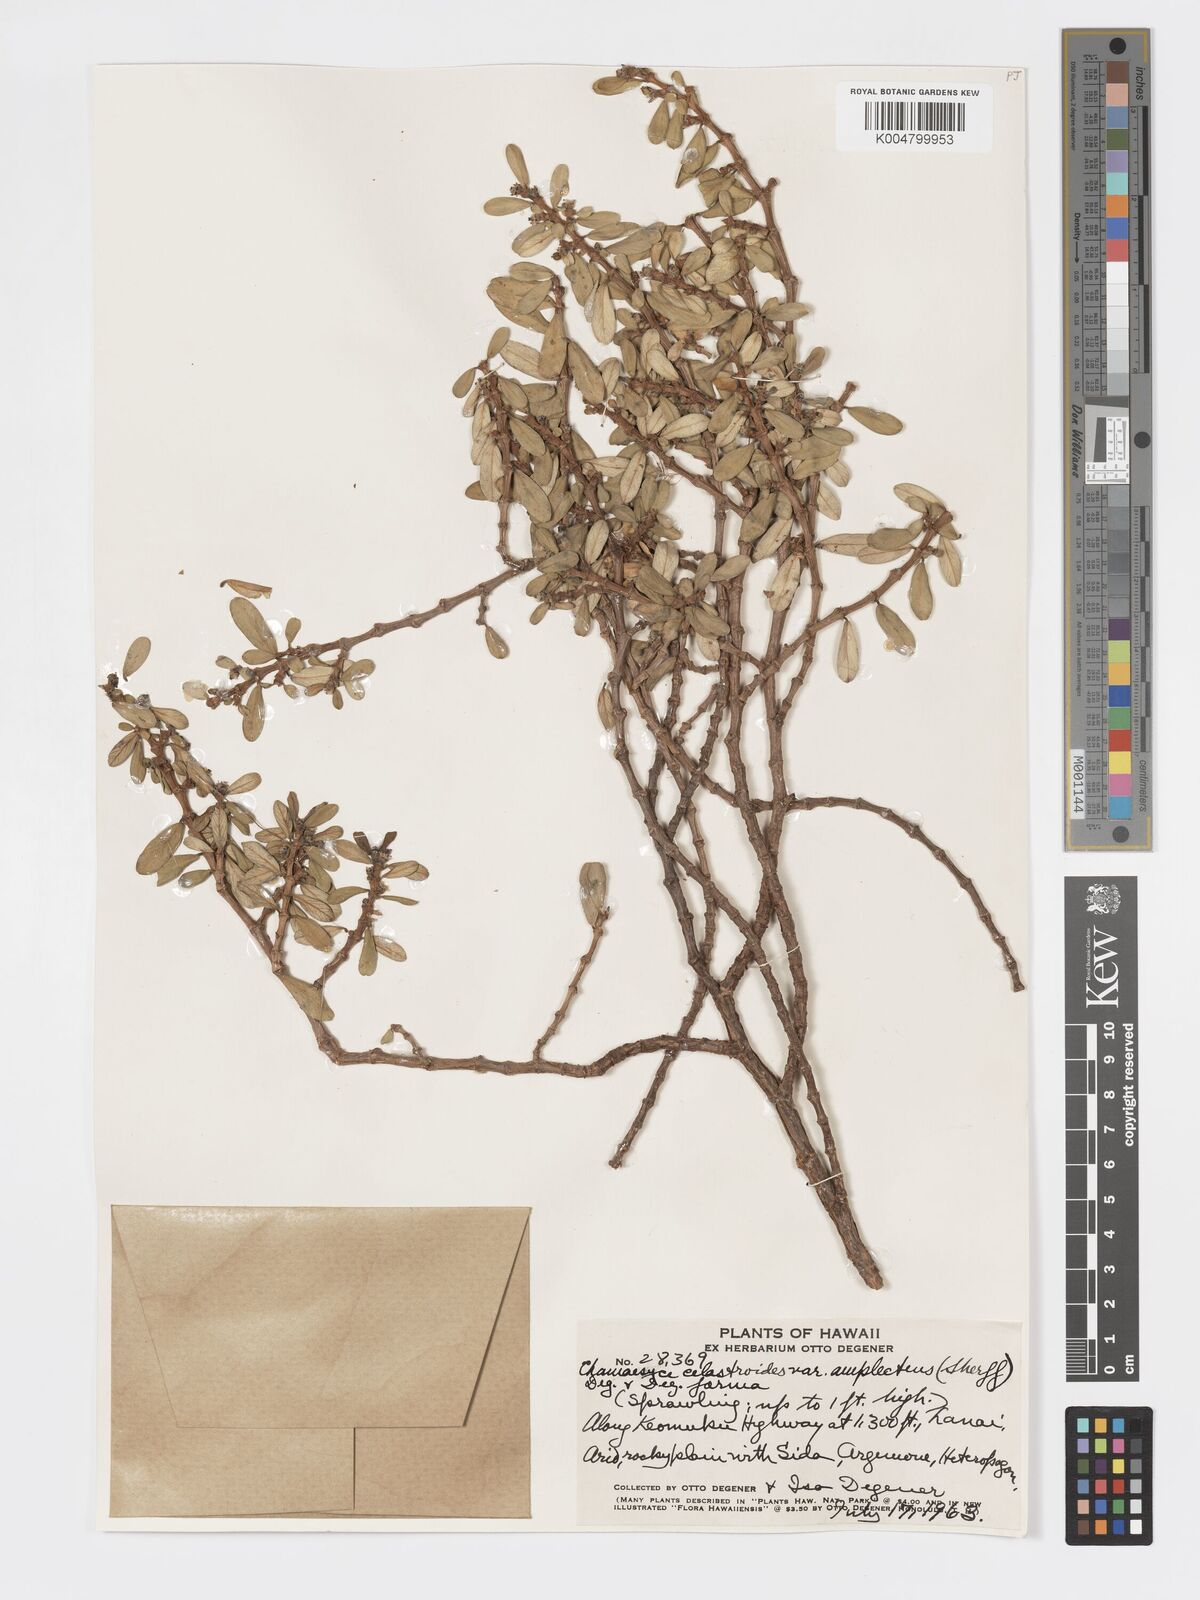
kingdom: Plantae
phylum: Tracheophyta
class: Magnoliopsida
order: Malpighiales
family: Euphorbiaceae
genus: Euphorbia
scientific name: Euphorbia celastroides
